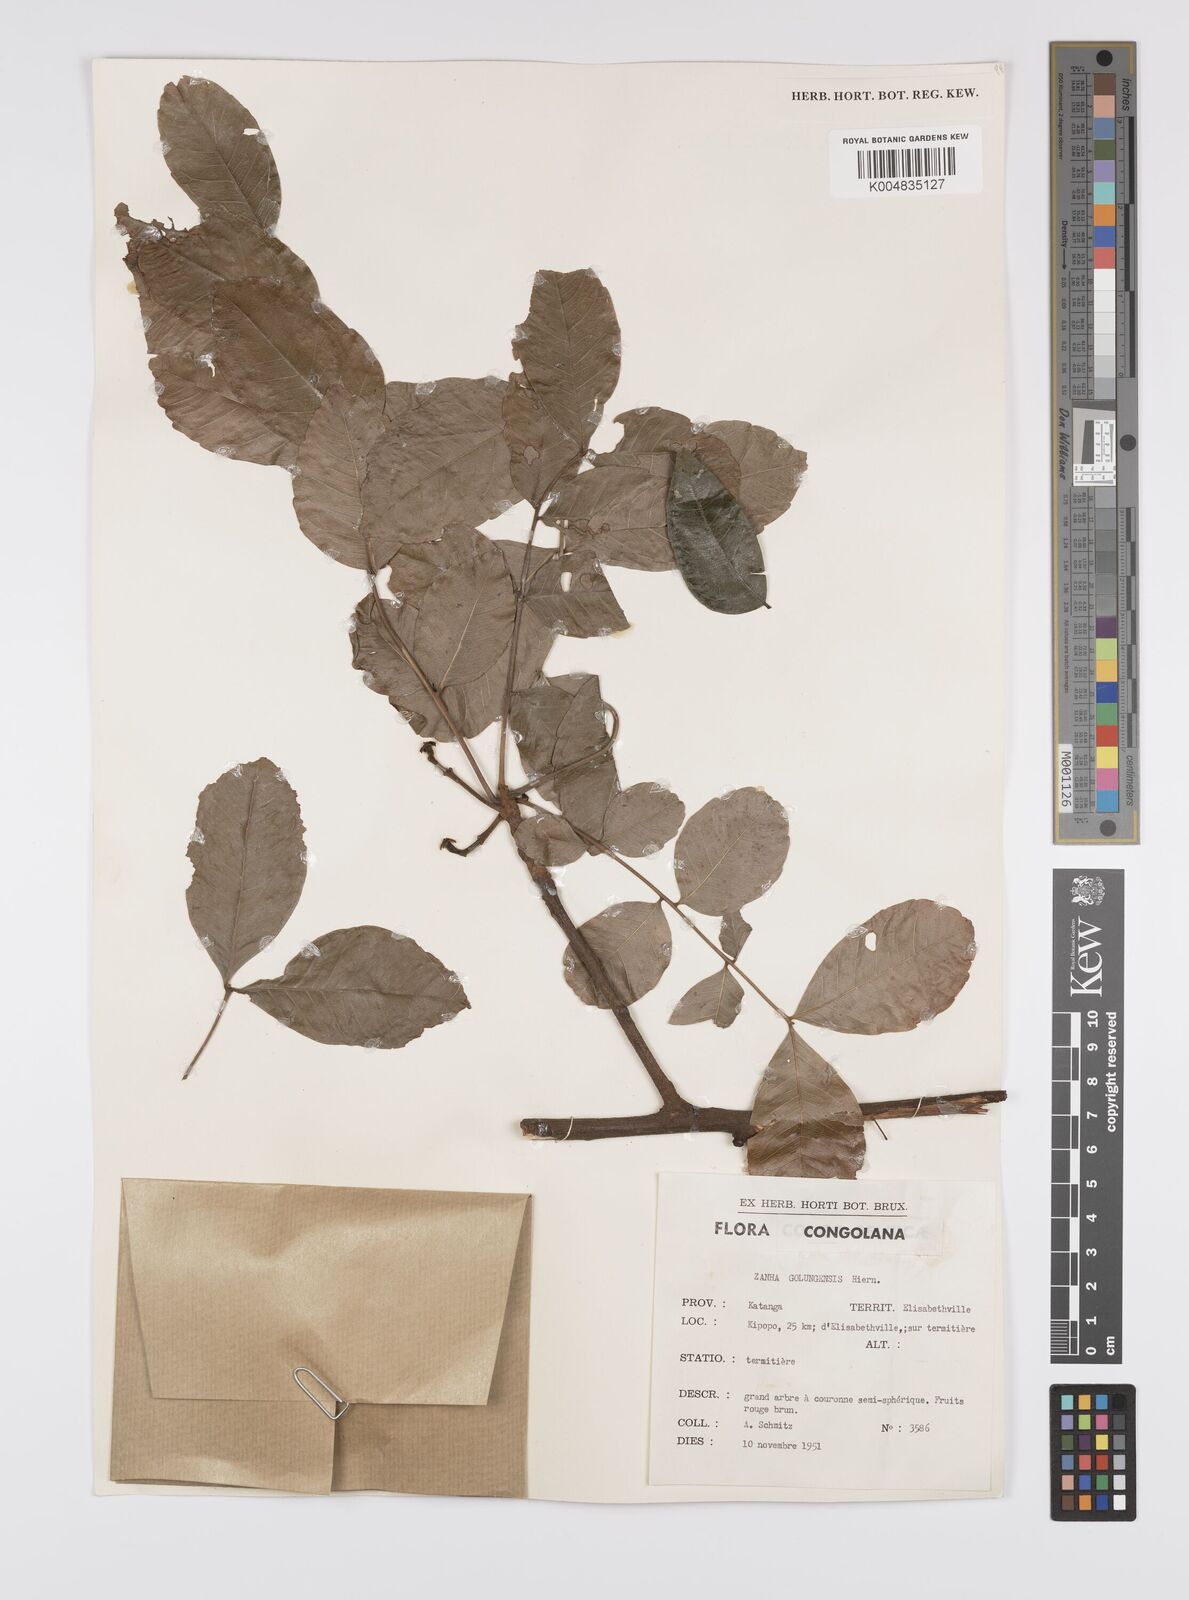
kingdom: Plantae
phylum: Tracheophyta
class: Magnoliopsida
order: Sapindales
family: Sapindaceae
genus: Zanha
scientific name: Zanha golungensis
